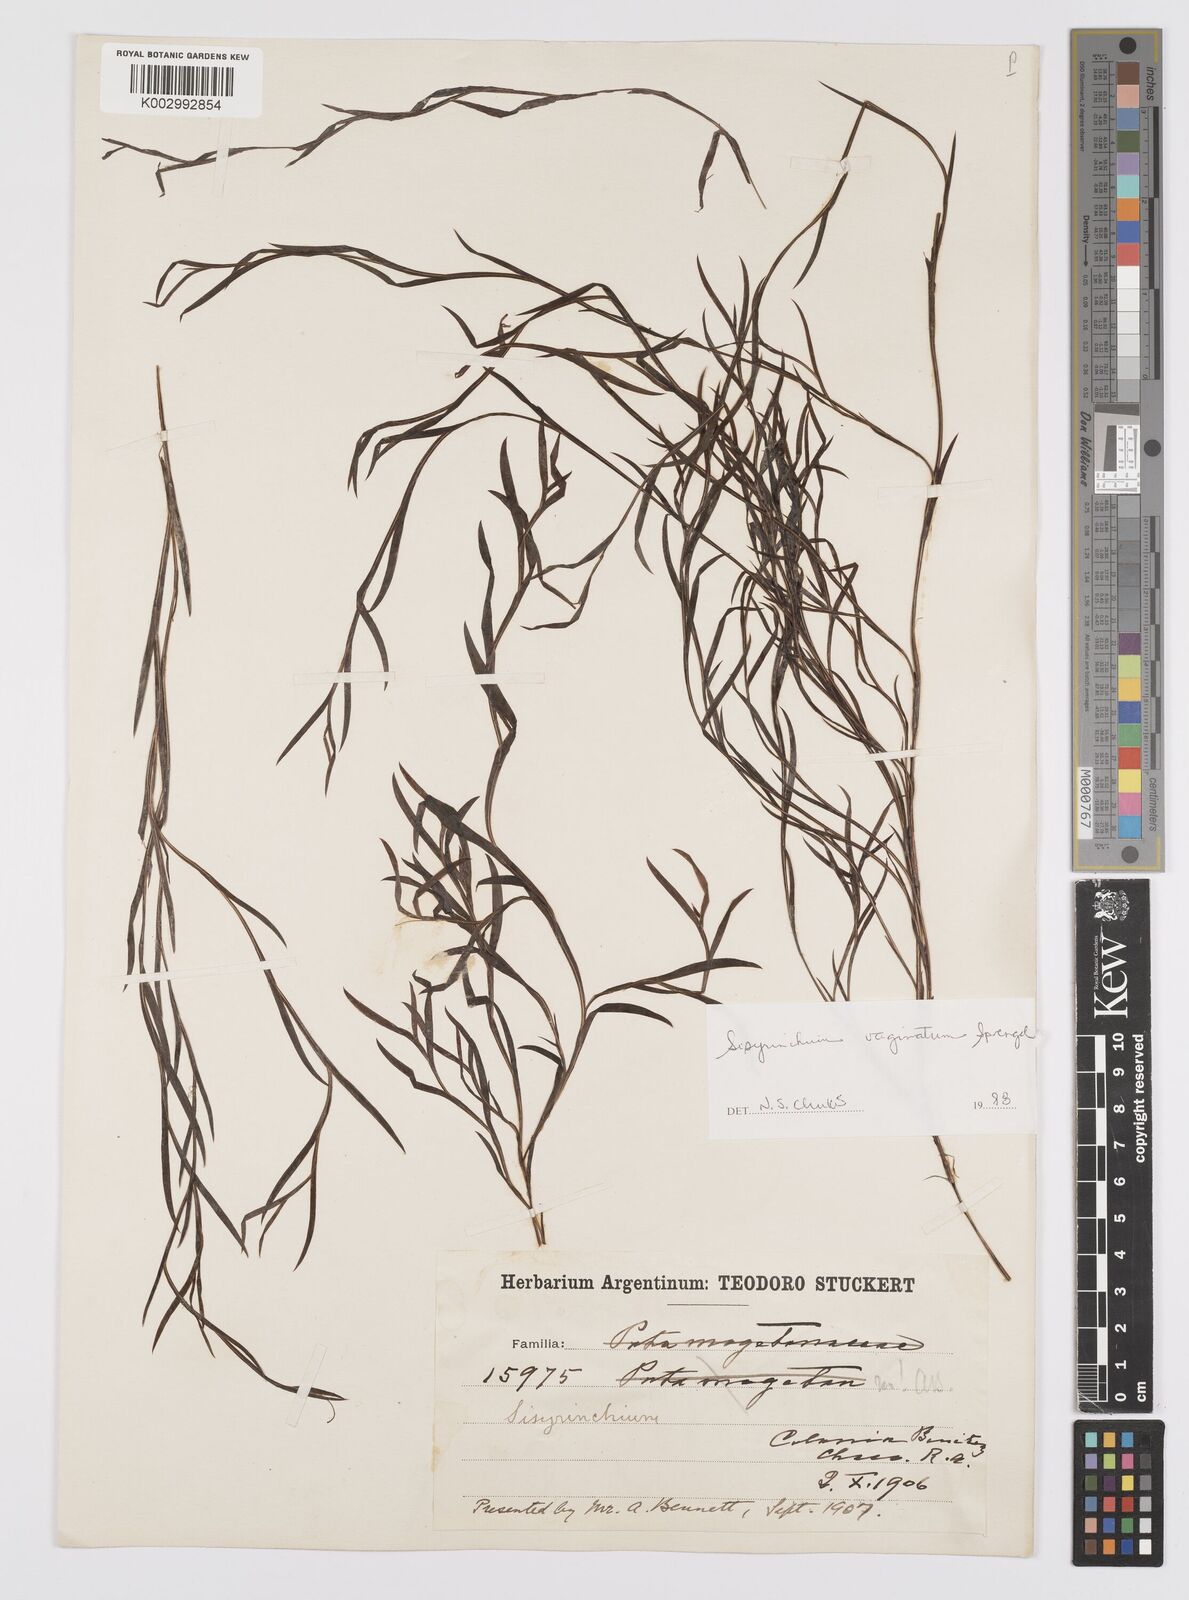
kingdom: Plantae
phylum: Tracheophyta
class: Liliopsida
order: Asparagales
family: Iridaceae
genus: Sisyrinchium
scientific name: Sisyrinchium vaginatum
